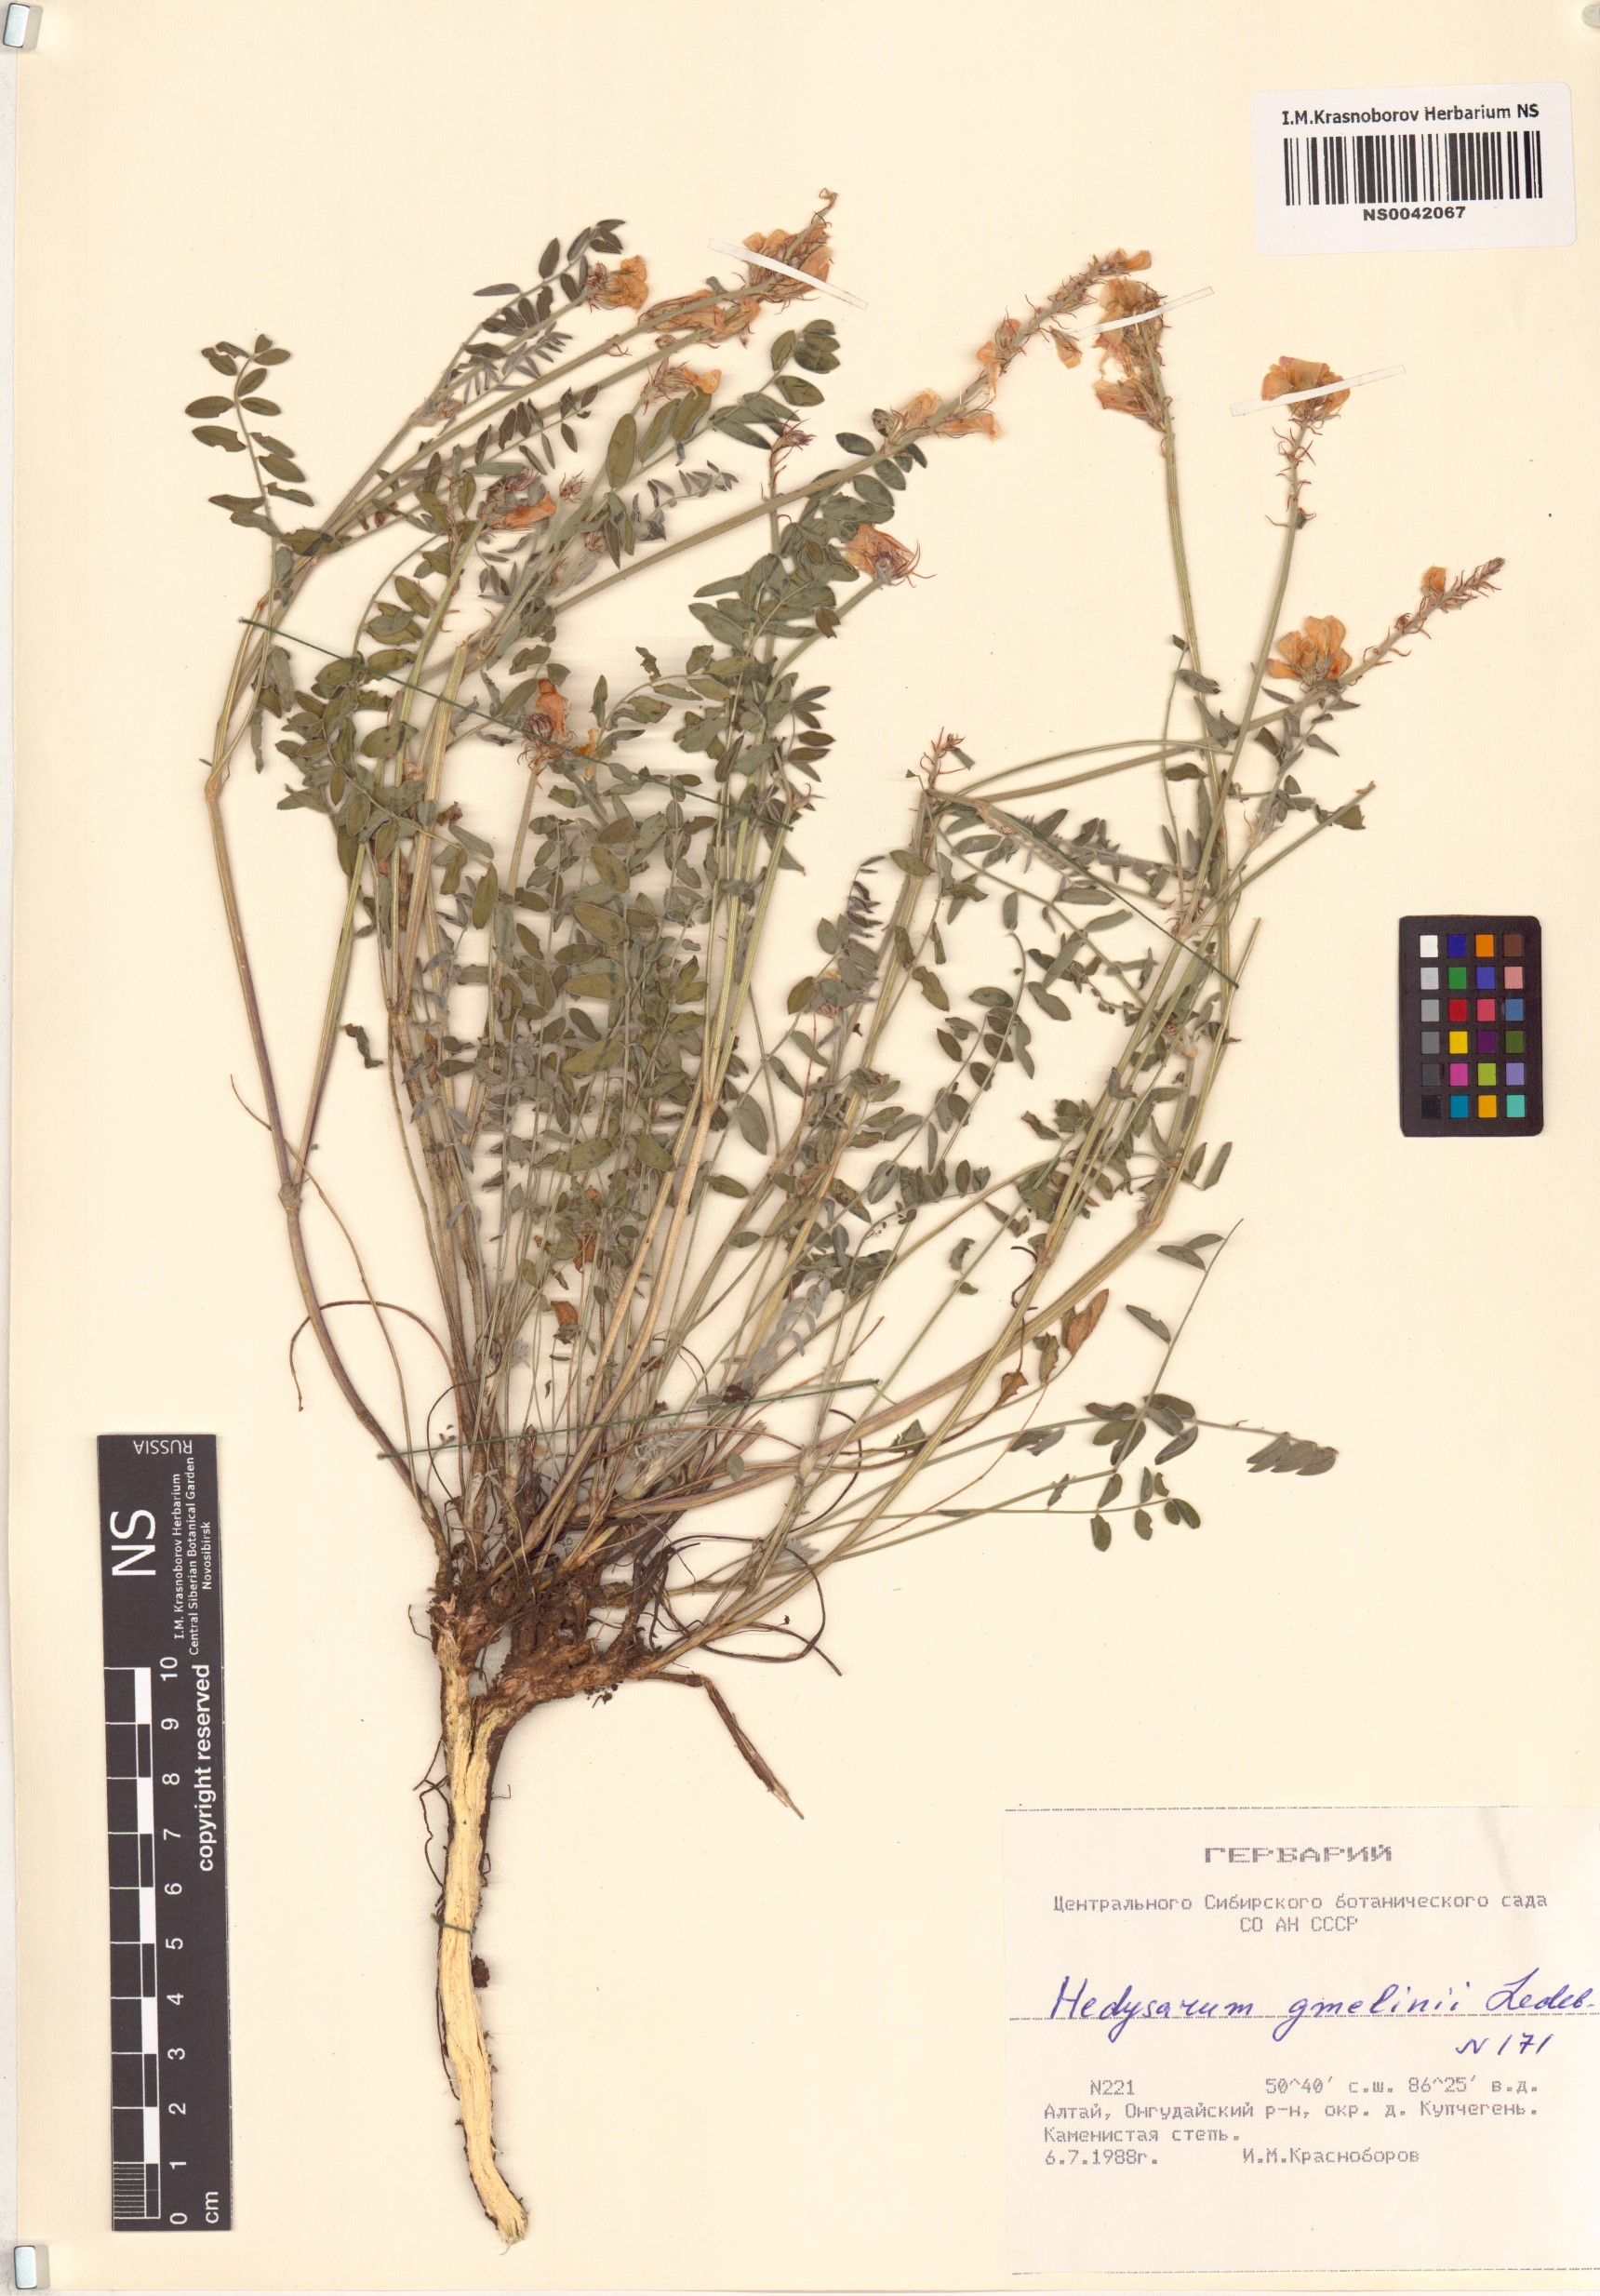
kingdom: Plantae
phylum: Tracheophyta
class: Magnoliopsida
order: Fabales
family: Fabaceae
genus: Hedysarum
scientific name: Hedysarum gmelinii
